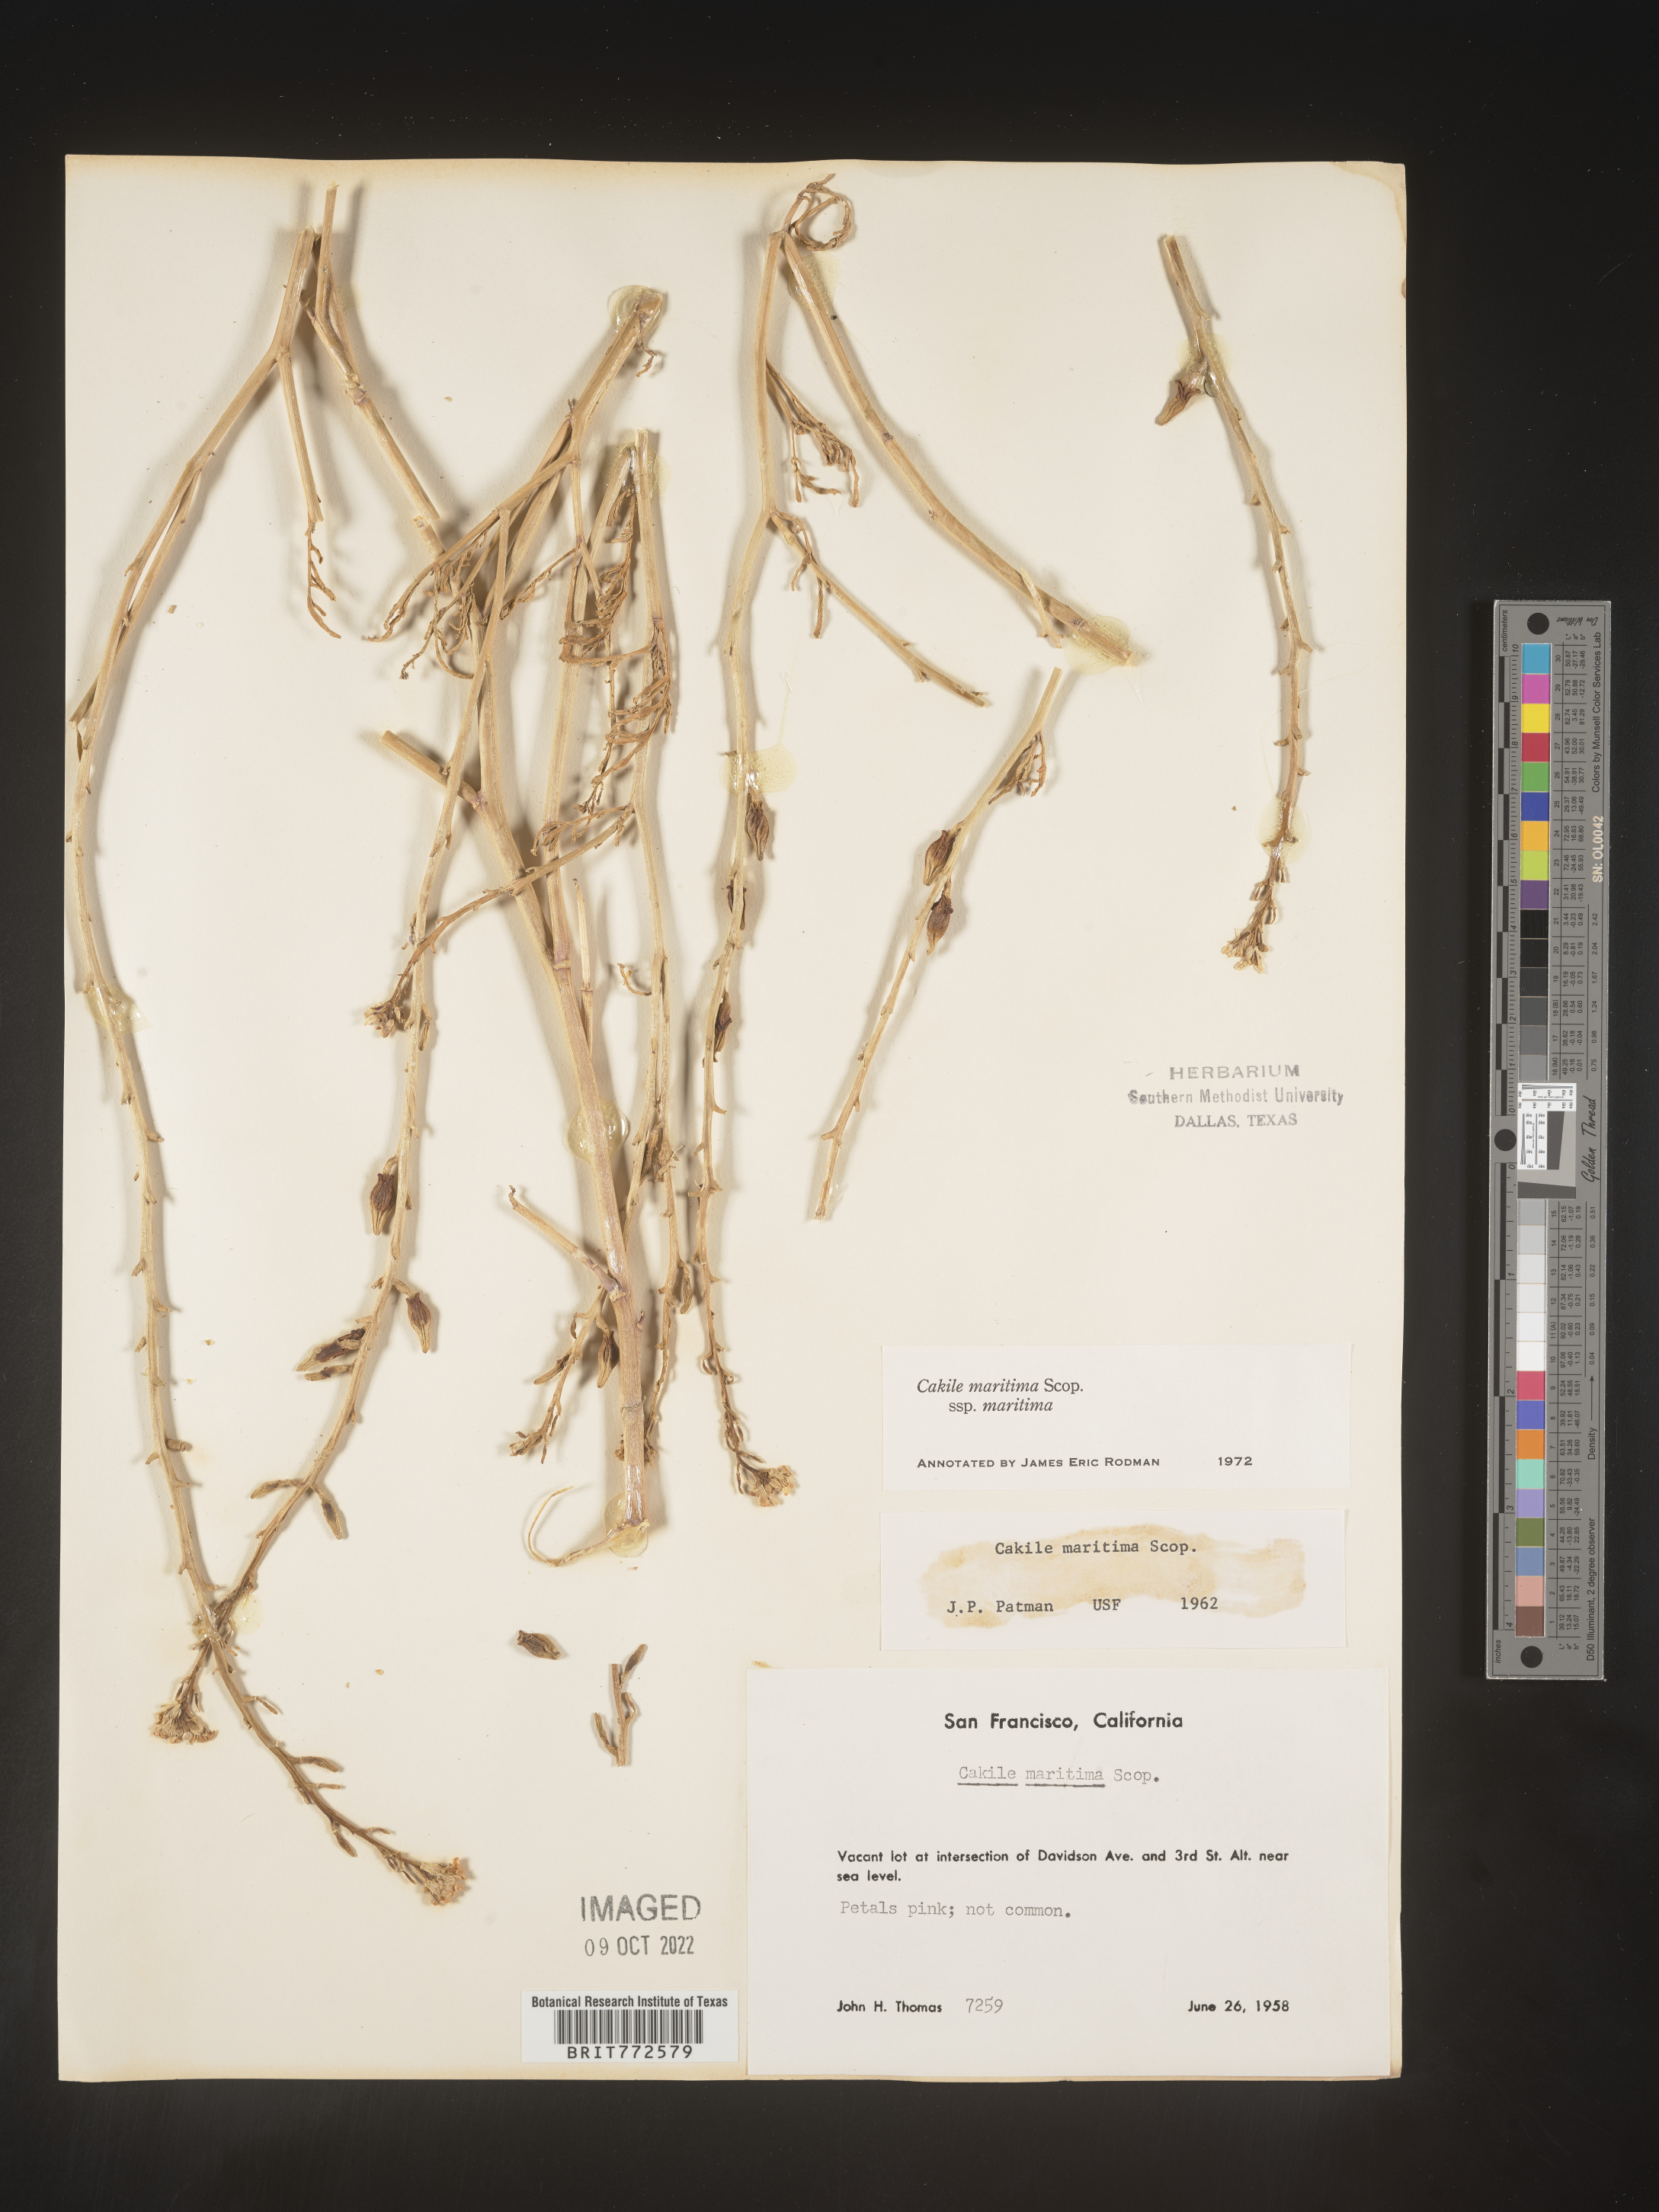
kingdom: Plantae
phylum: Tracheophyta
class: Magnoliopsida
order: Brassicales
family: Brassicaceae
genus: Cakile
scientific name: Cakile maritima
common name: Sea rocket
